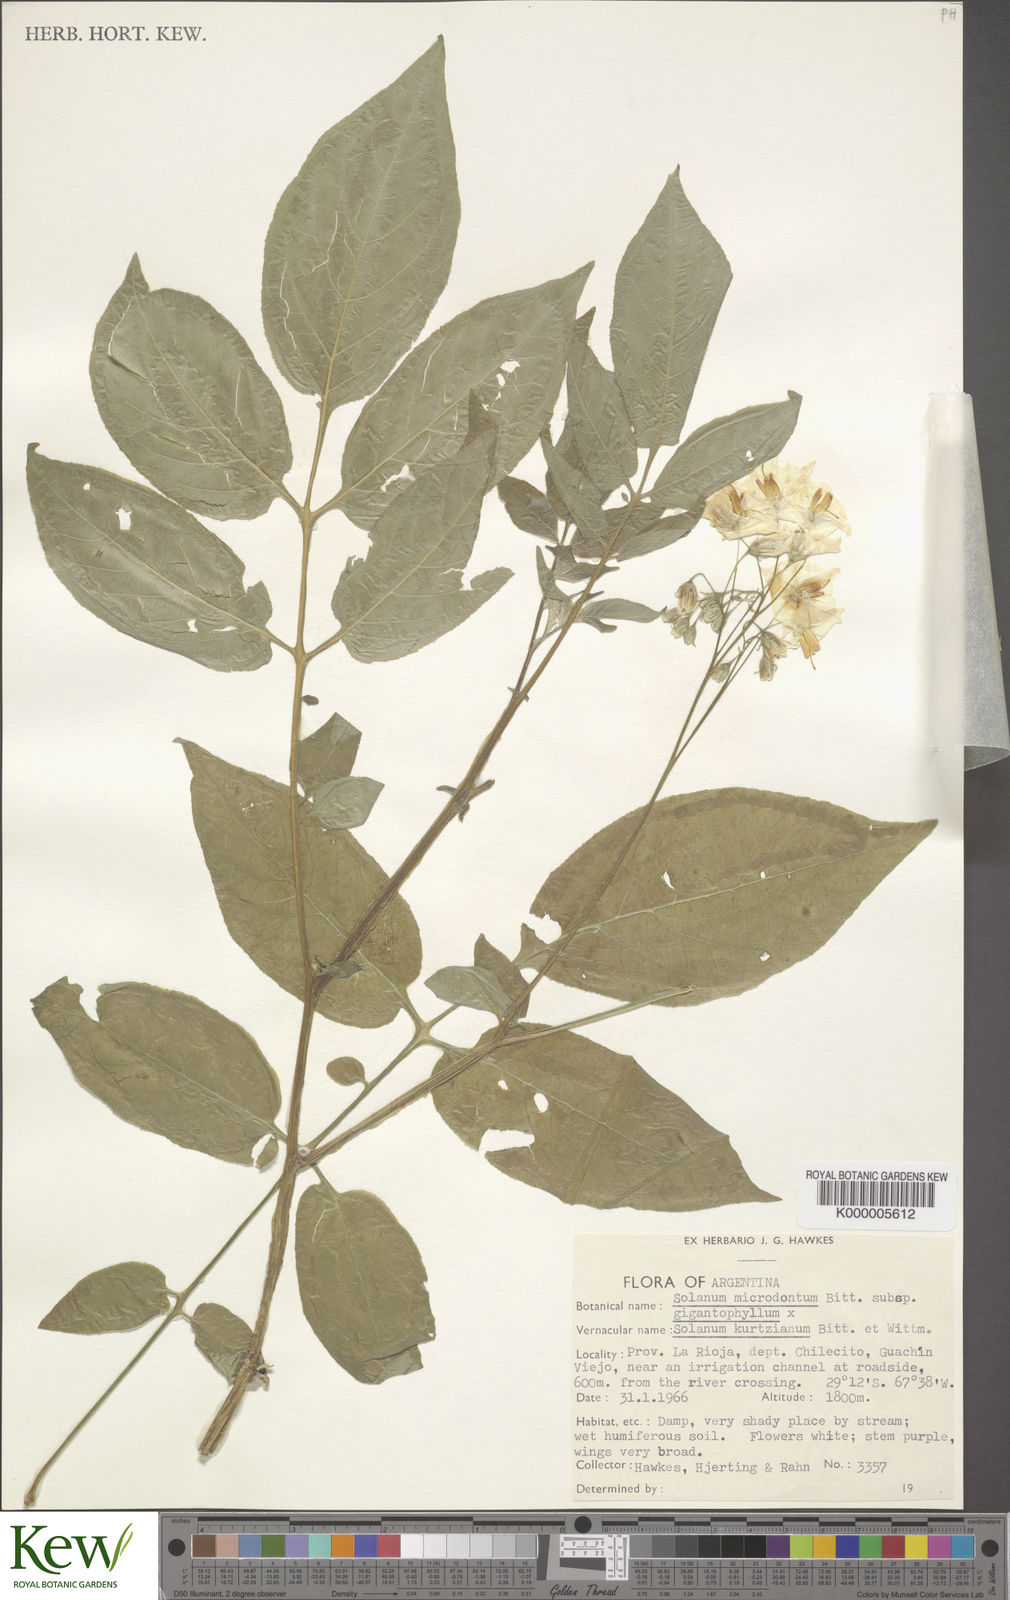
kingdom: Plantae
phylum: Tracheophyta
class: Magnoliopsida
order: Solanales
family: Solanaceae
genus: Solanum
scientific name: Solanum microdontum
